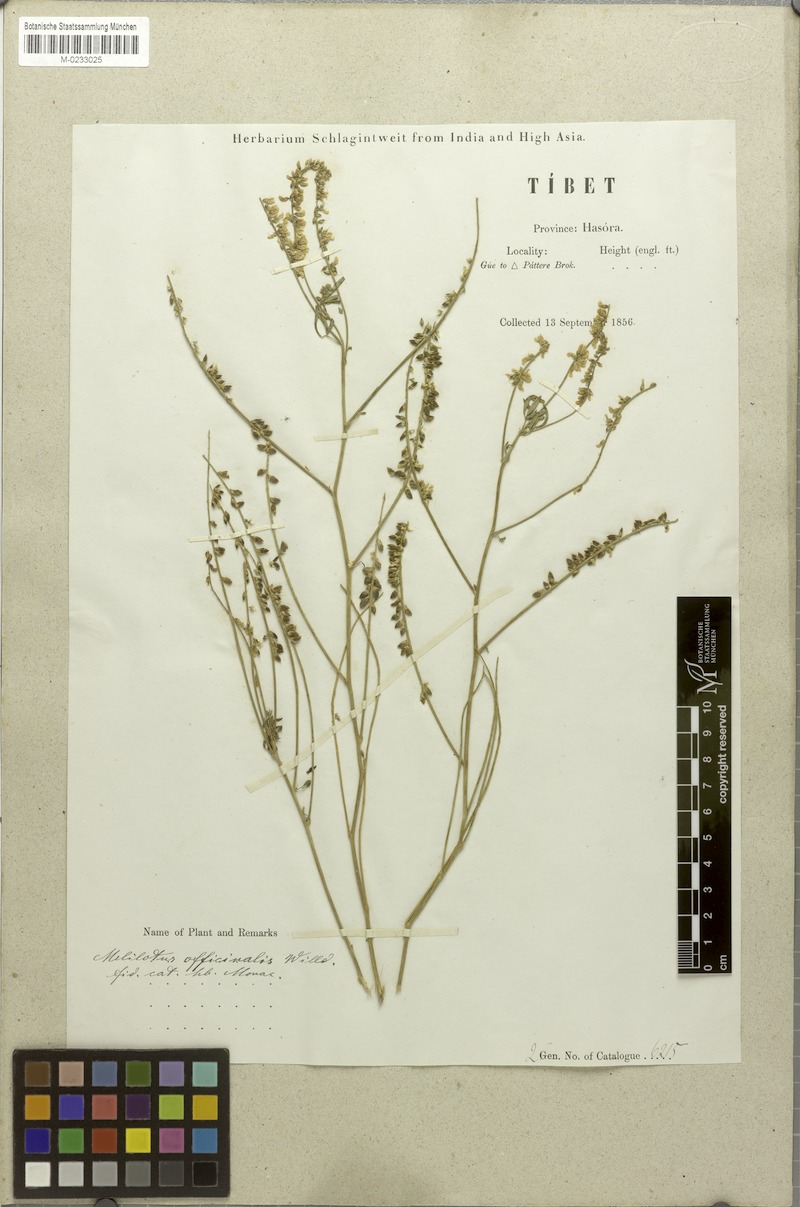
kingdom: Plantae
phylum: Tracheophyta
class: Magnoliopsida
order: Fabales
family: Fabaceae
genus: Melilotus
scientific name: Melilotus officinalis
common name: Sweetclover
